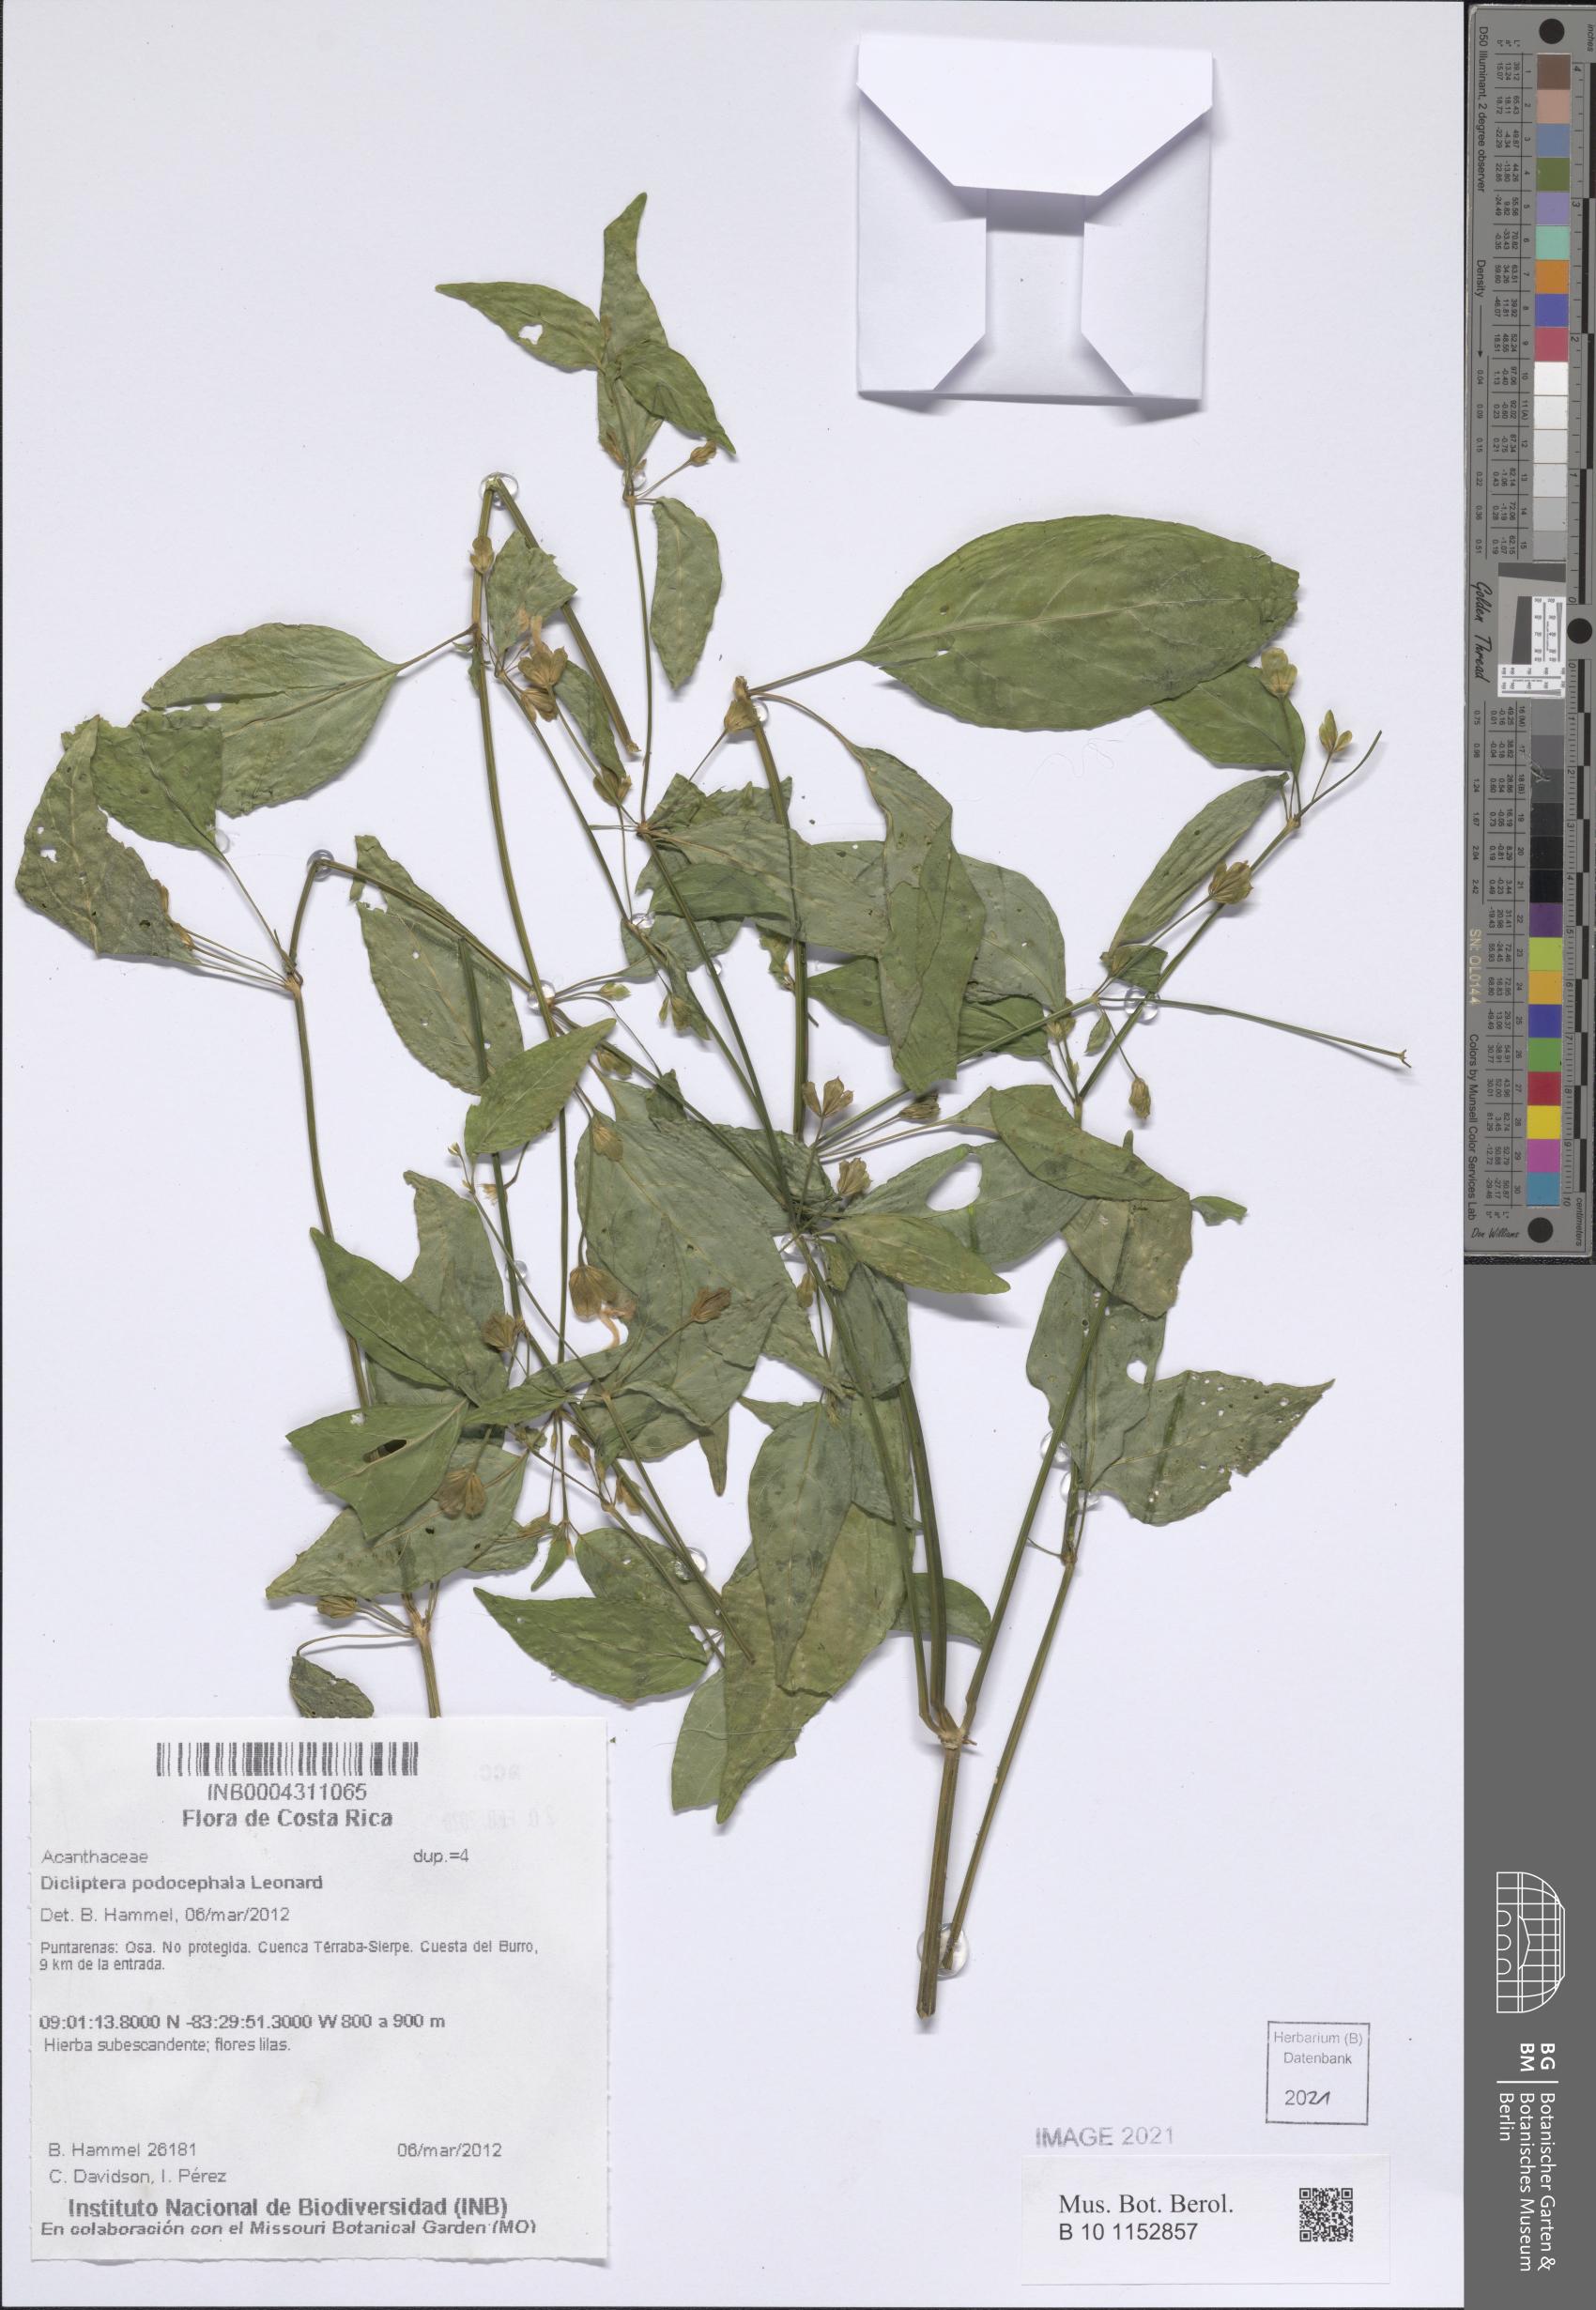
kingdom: Plantae
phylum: Tracheophyta
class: Magnoliopsida
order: Lamiales
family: Acanthaceae
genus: Dicliptera
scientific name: Dicliptera podocephala
